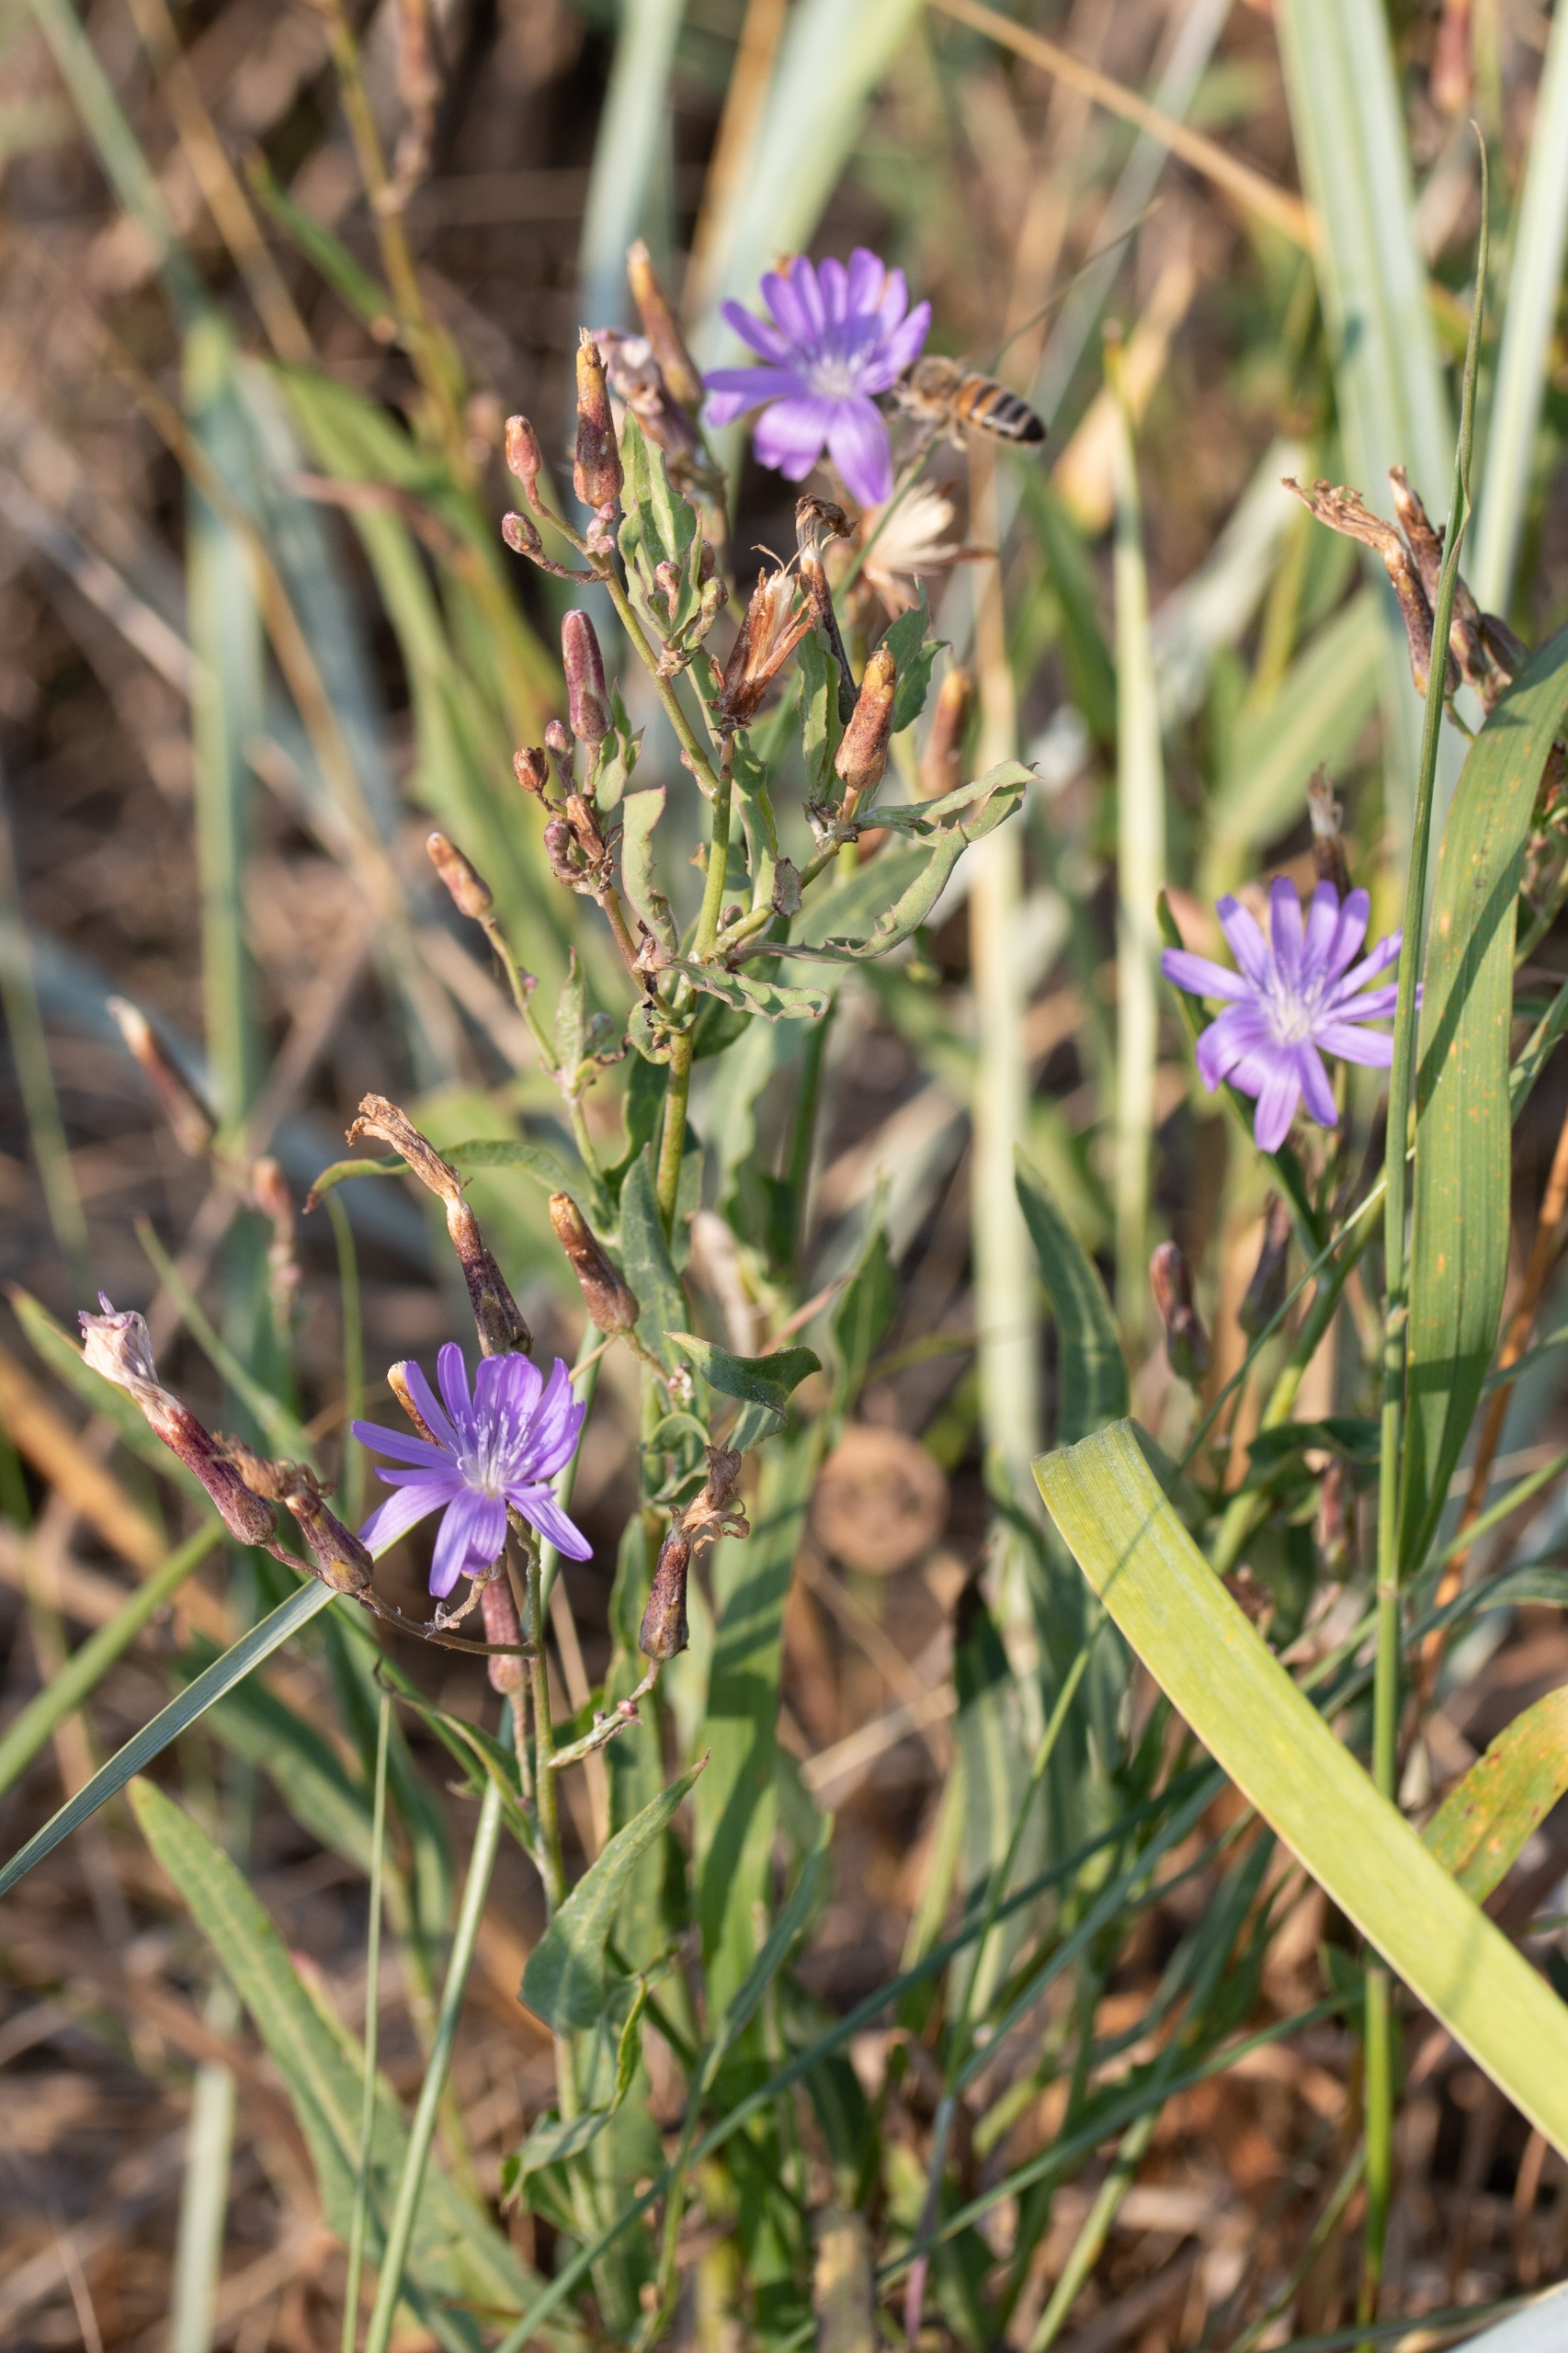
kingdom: Plantae
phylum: Tracheophyta
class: Magnoliopsida
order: Asterales
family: Asteraceae
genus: Lactuca
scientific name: Lactuca tatarica
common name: Strand-salat
